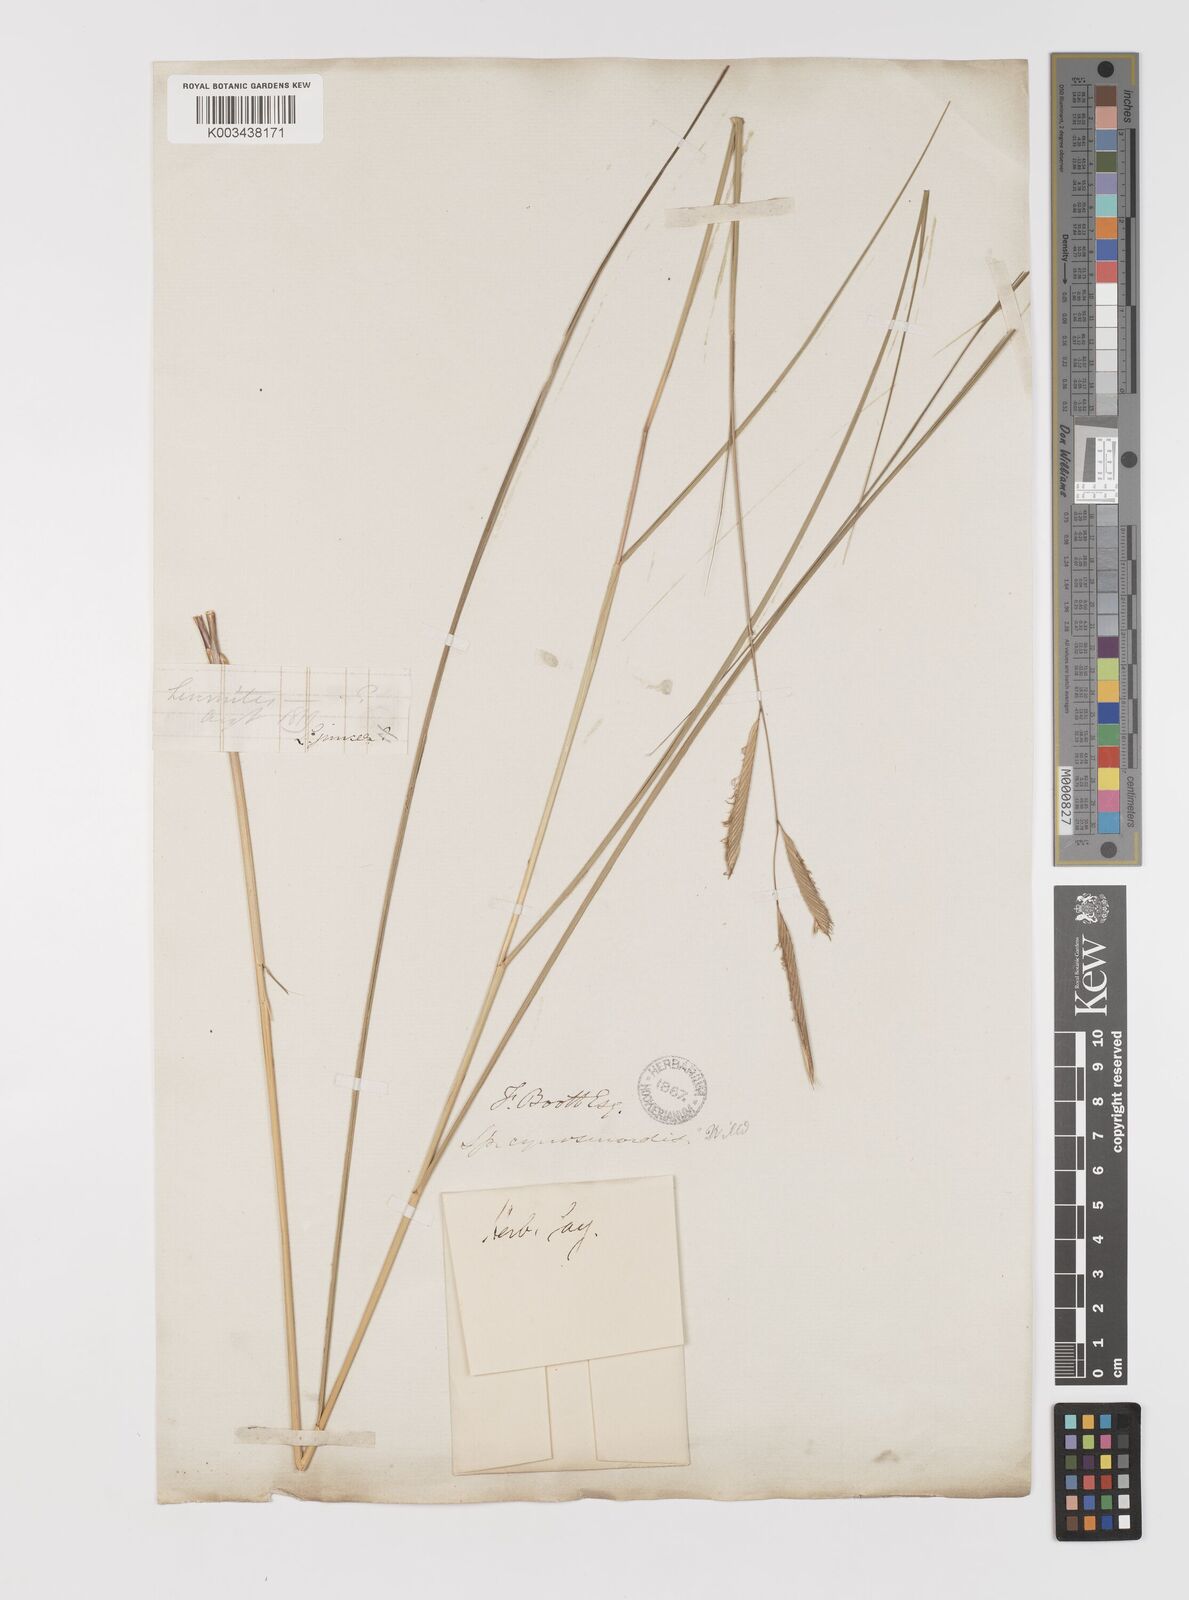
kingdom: Plantae
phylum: Tracheophyta
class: Liliopsida
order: Poales
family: Poaceae
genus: Sporobolus
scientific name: Sporobolus pumilus
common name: Highwater grass
